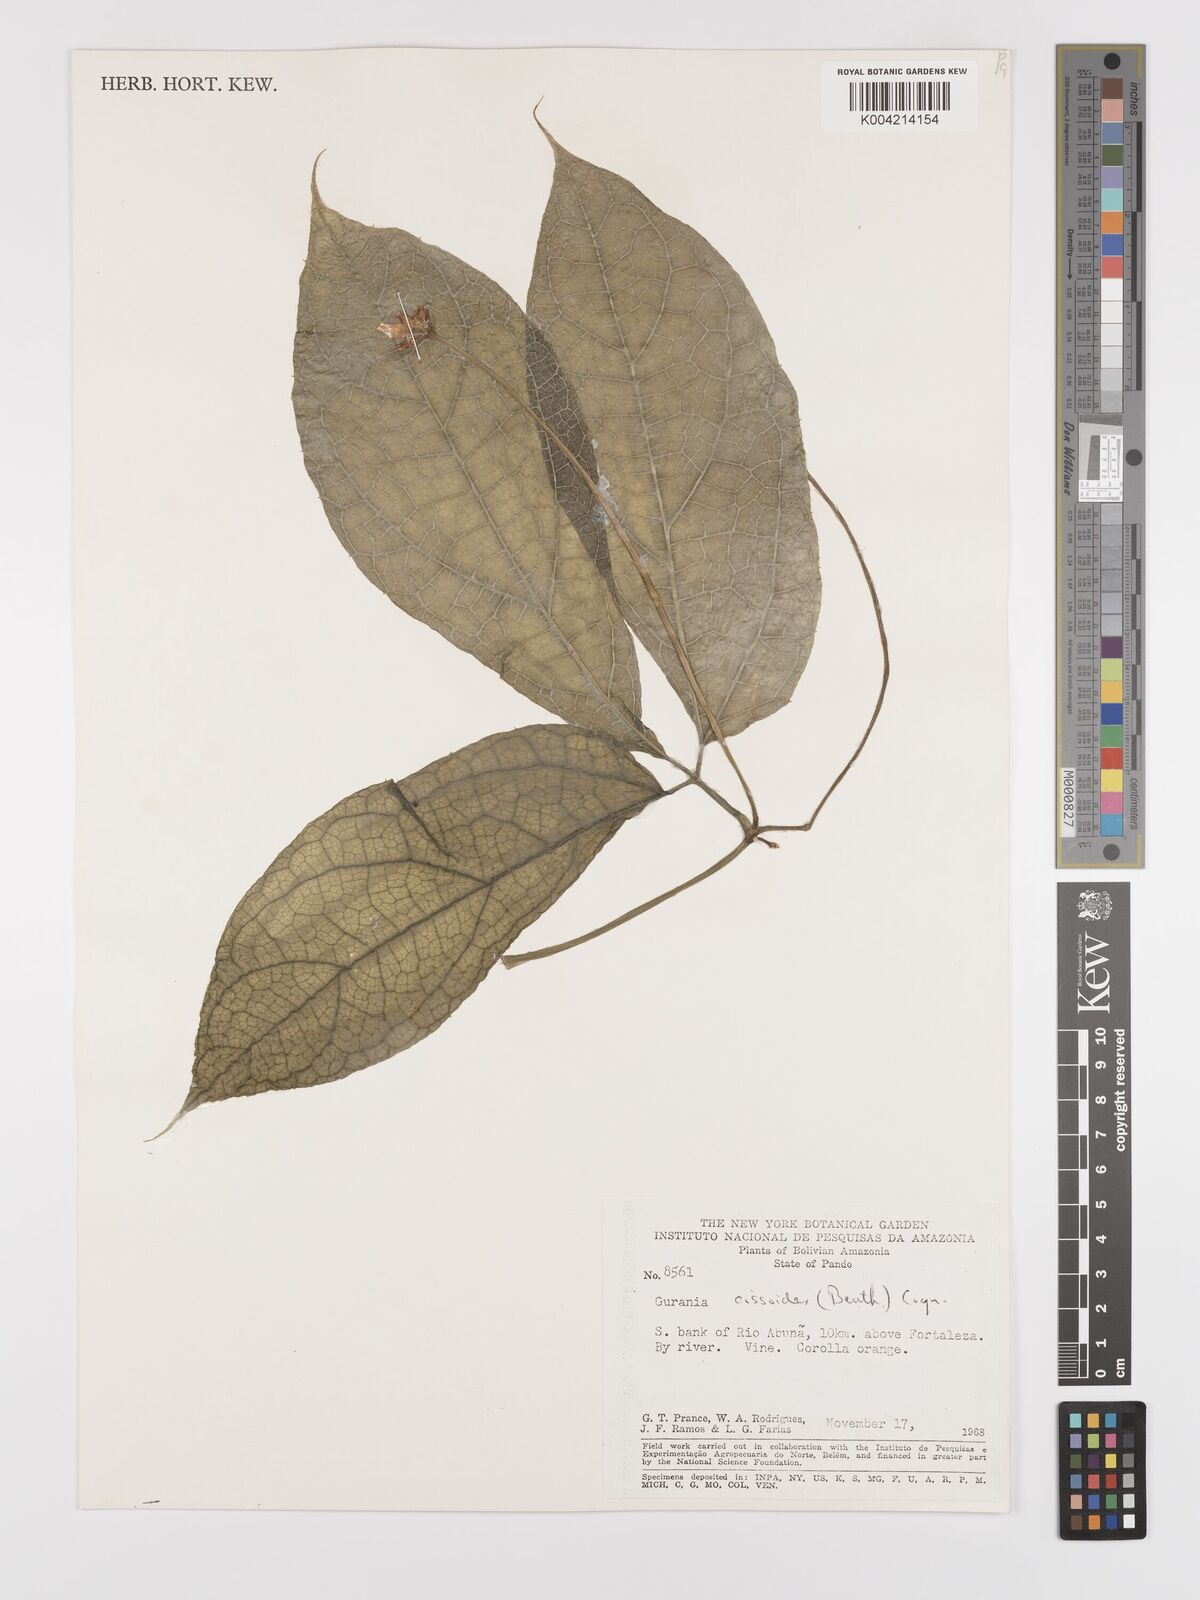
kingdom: Plantae
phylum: Tracheophyta
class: Magnoliopsida
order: Cucurbitales
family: Cucurbitaceae
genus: Gurania
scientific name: Gurania bignoniacea
